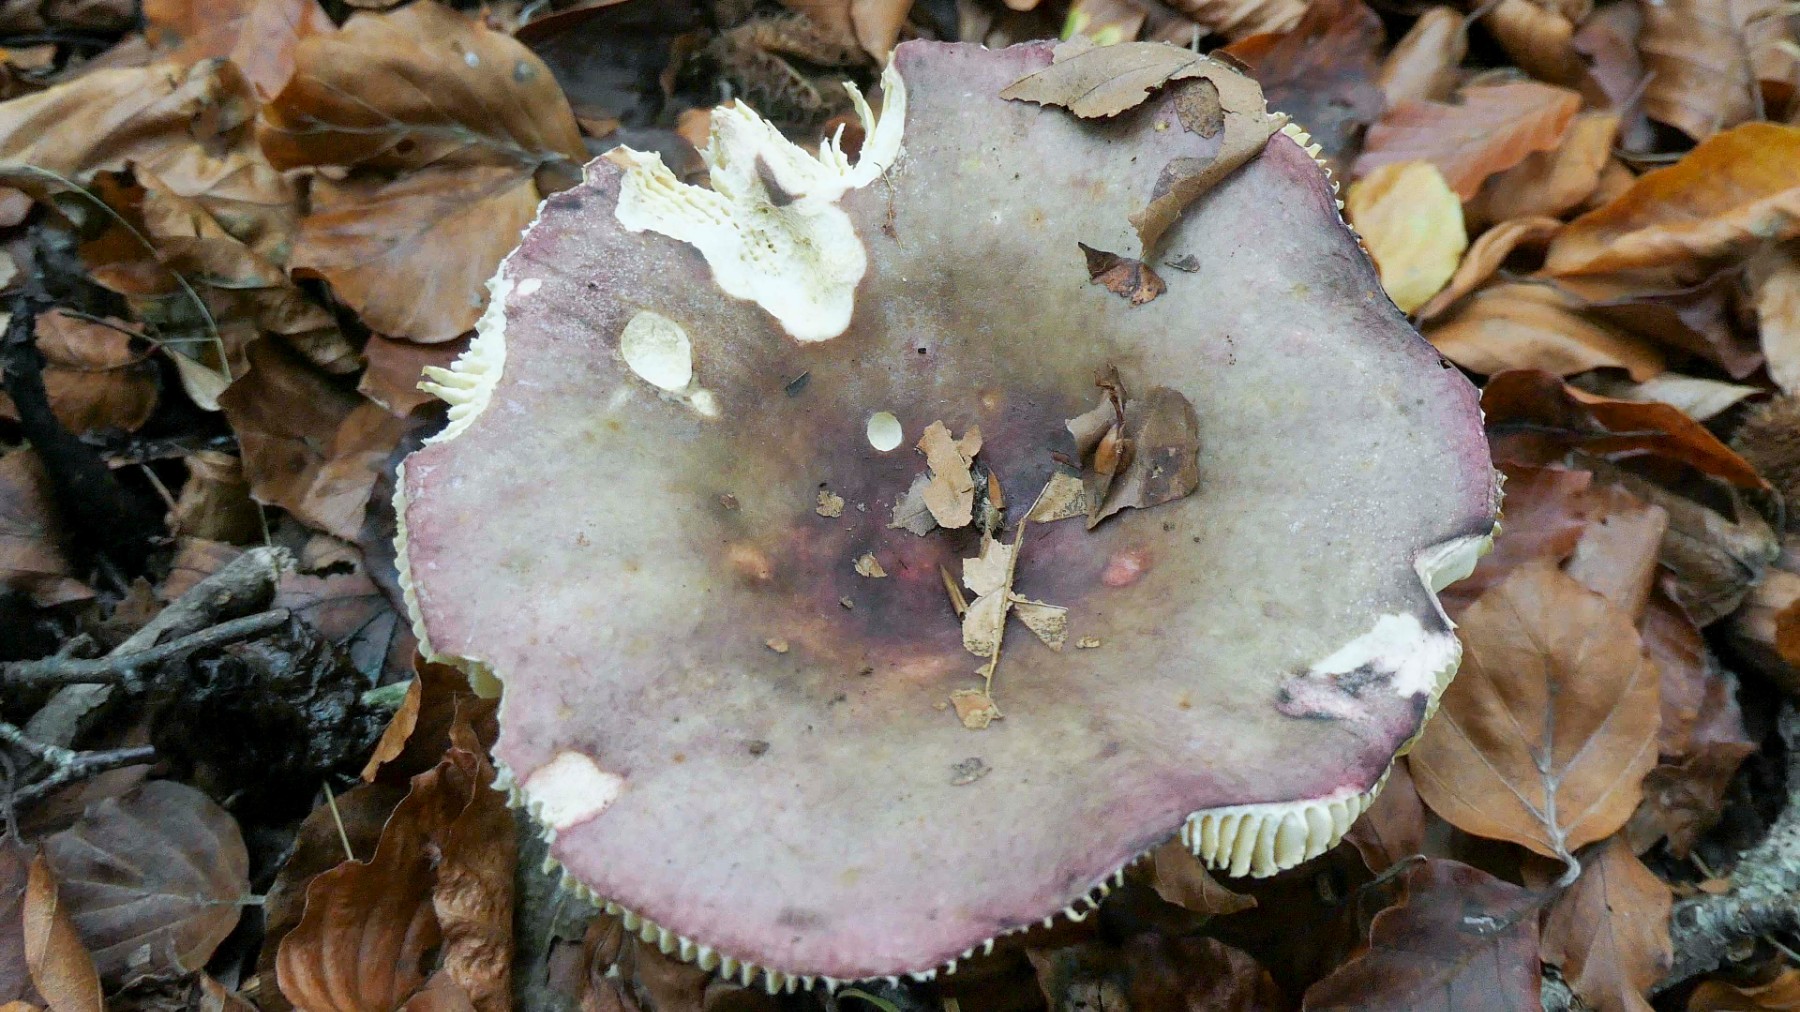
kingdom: Fungi
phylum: Basidiomycota
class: Agaricomycetes
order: Russulales
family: Russulaceae
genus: Russula
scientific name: Russula romellii
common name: romells skørhat
